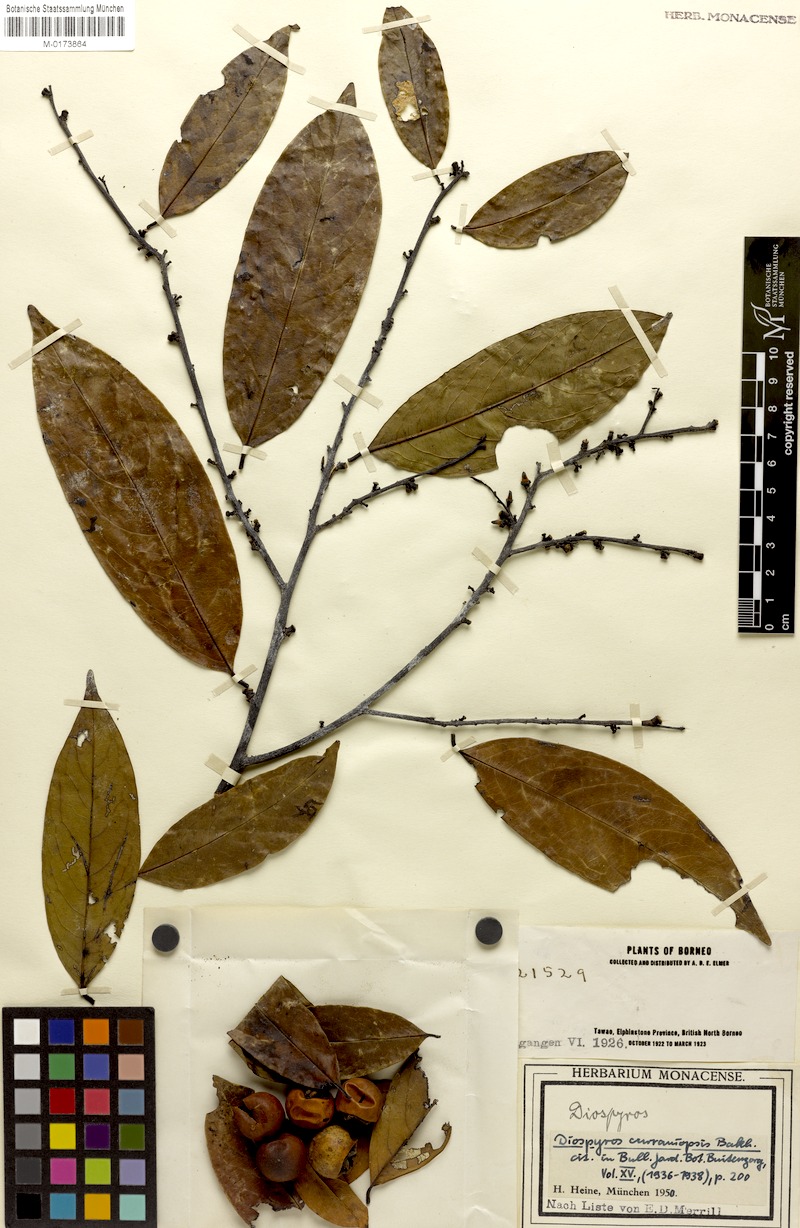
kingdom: Plantae
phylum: Tracheophyta
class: Magnoliopsida
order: Ericales
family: Ebenaceae
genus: Diospyros
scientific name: Diospyros curranii
